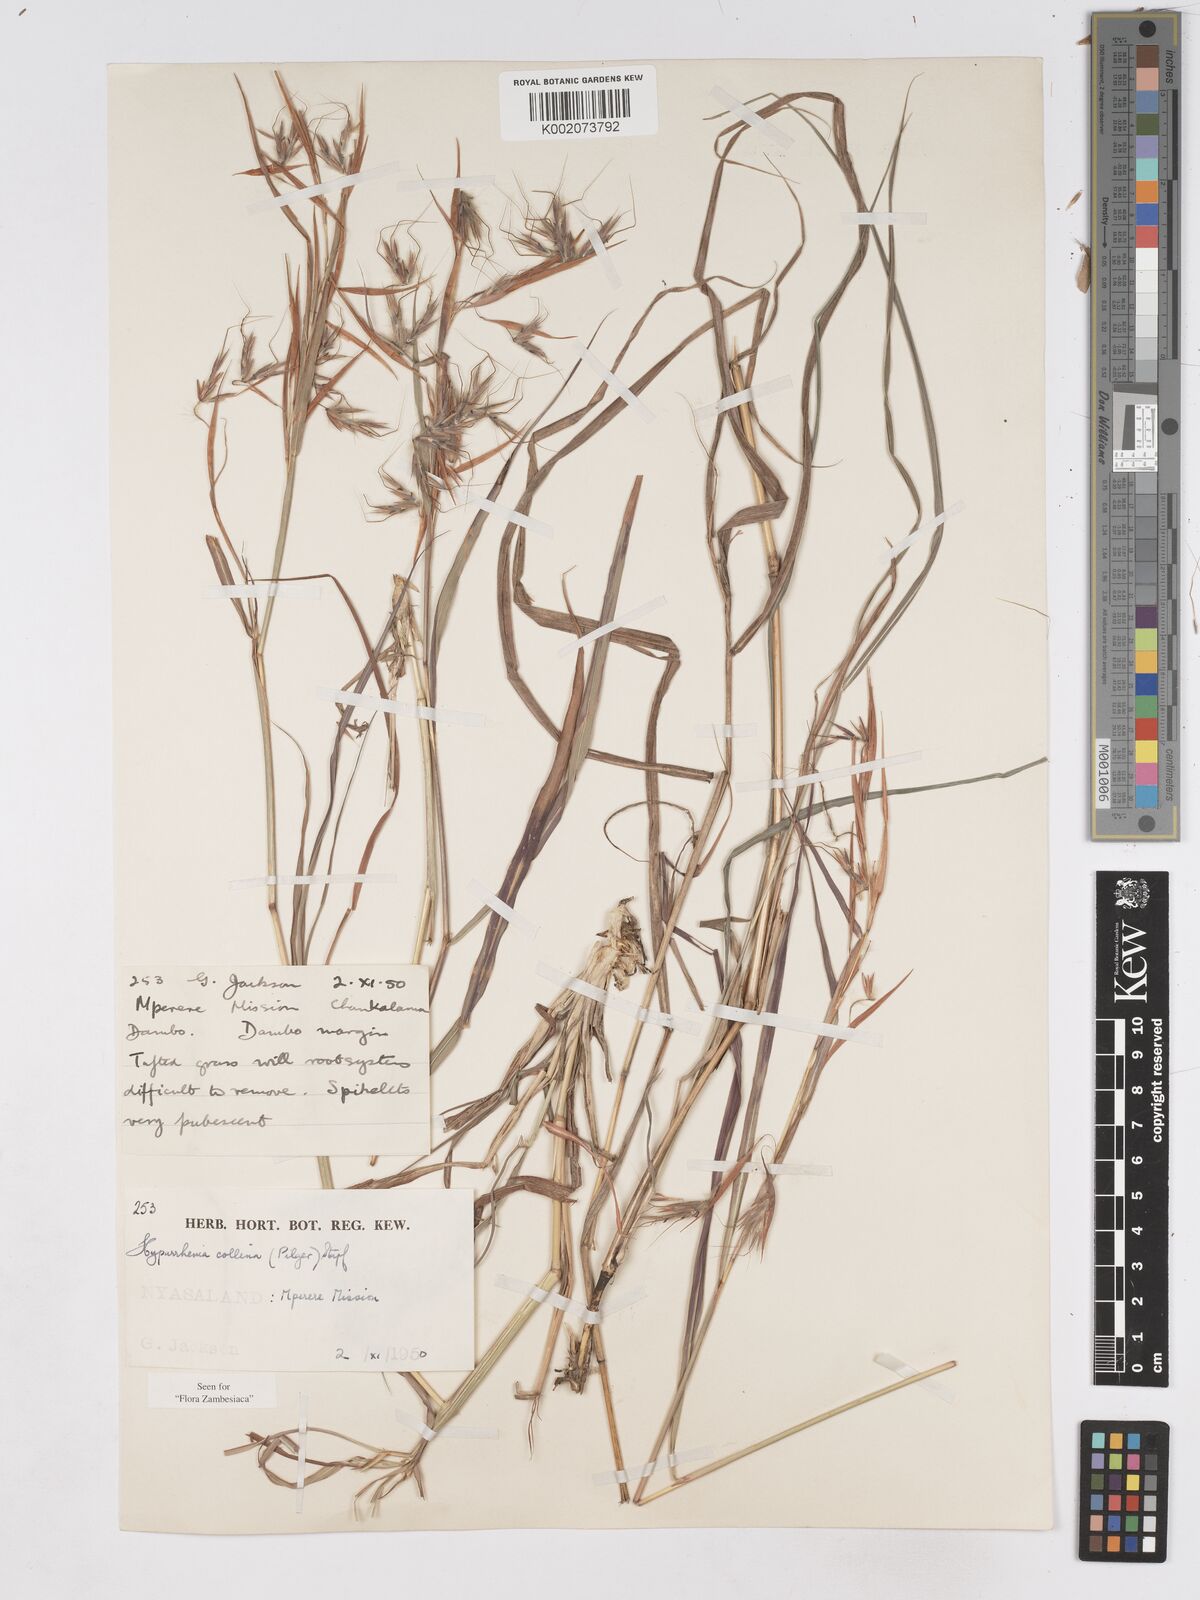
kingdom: Plantae
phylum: Tracheophyta
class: Liliopsida
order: Poales
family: Poaceae
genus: Hyparrhenia
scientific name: Hyparrhenia collina
